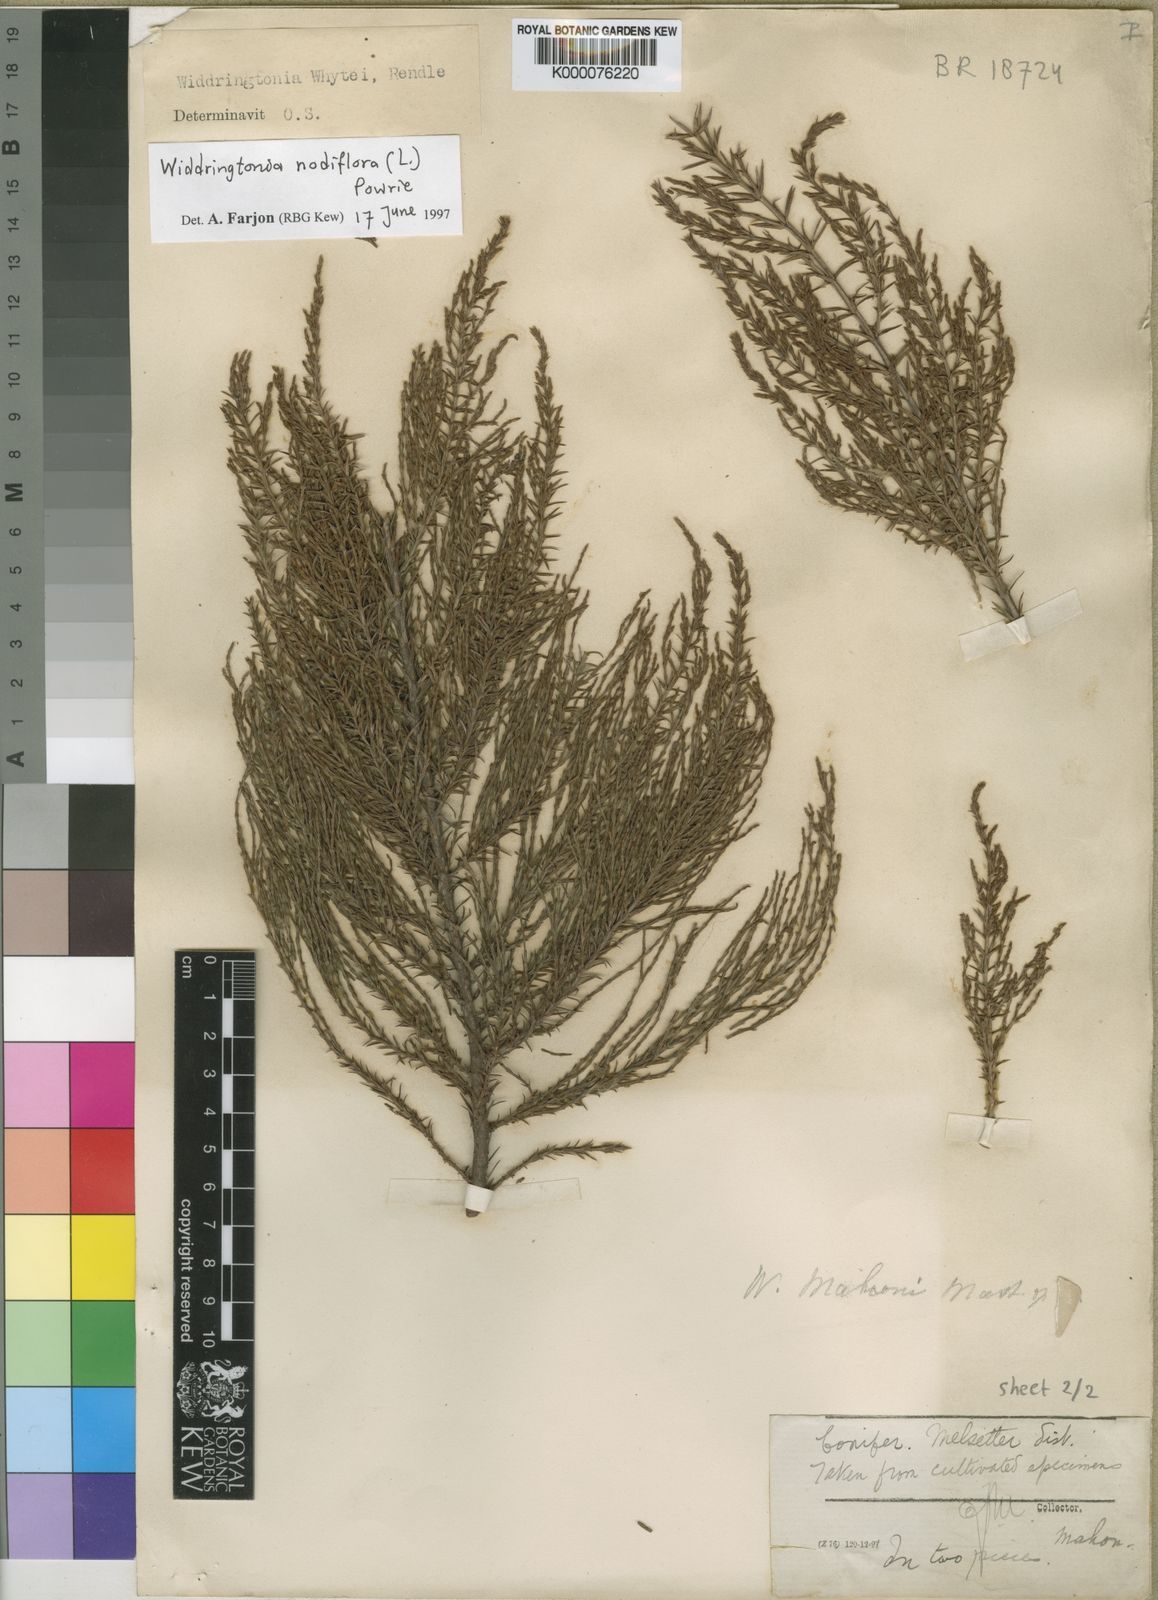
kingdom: Plantae
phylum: Tracheophyta
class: Pinopsida
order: Pinales
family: Cupressaceae
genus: Widdringtonia
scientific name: Widdringtonia nodiflora
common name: Cape cypress
